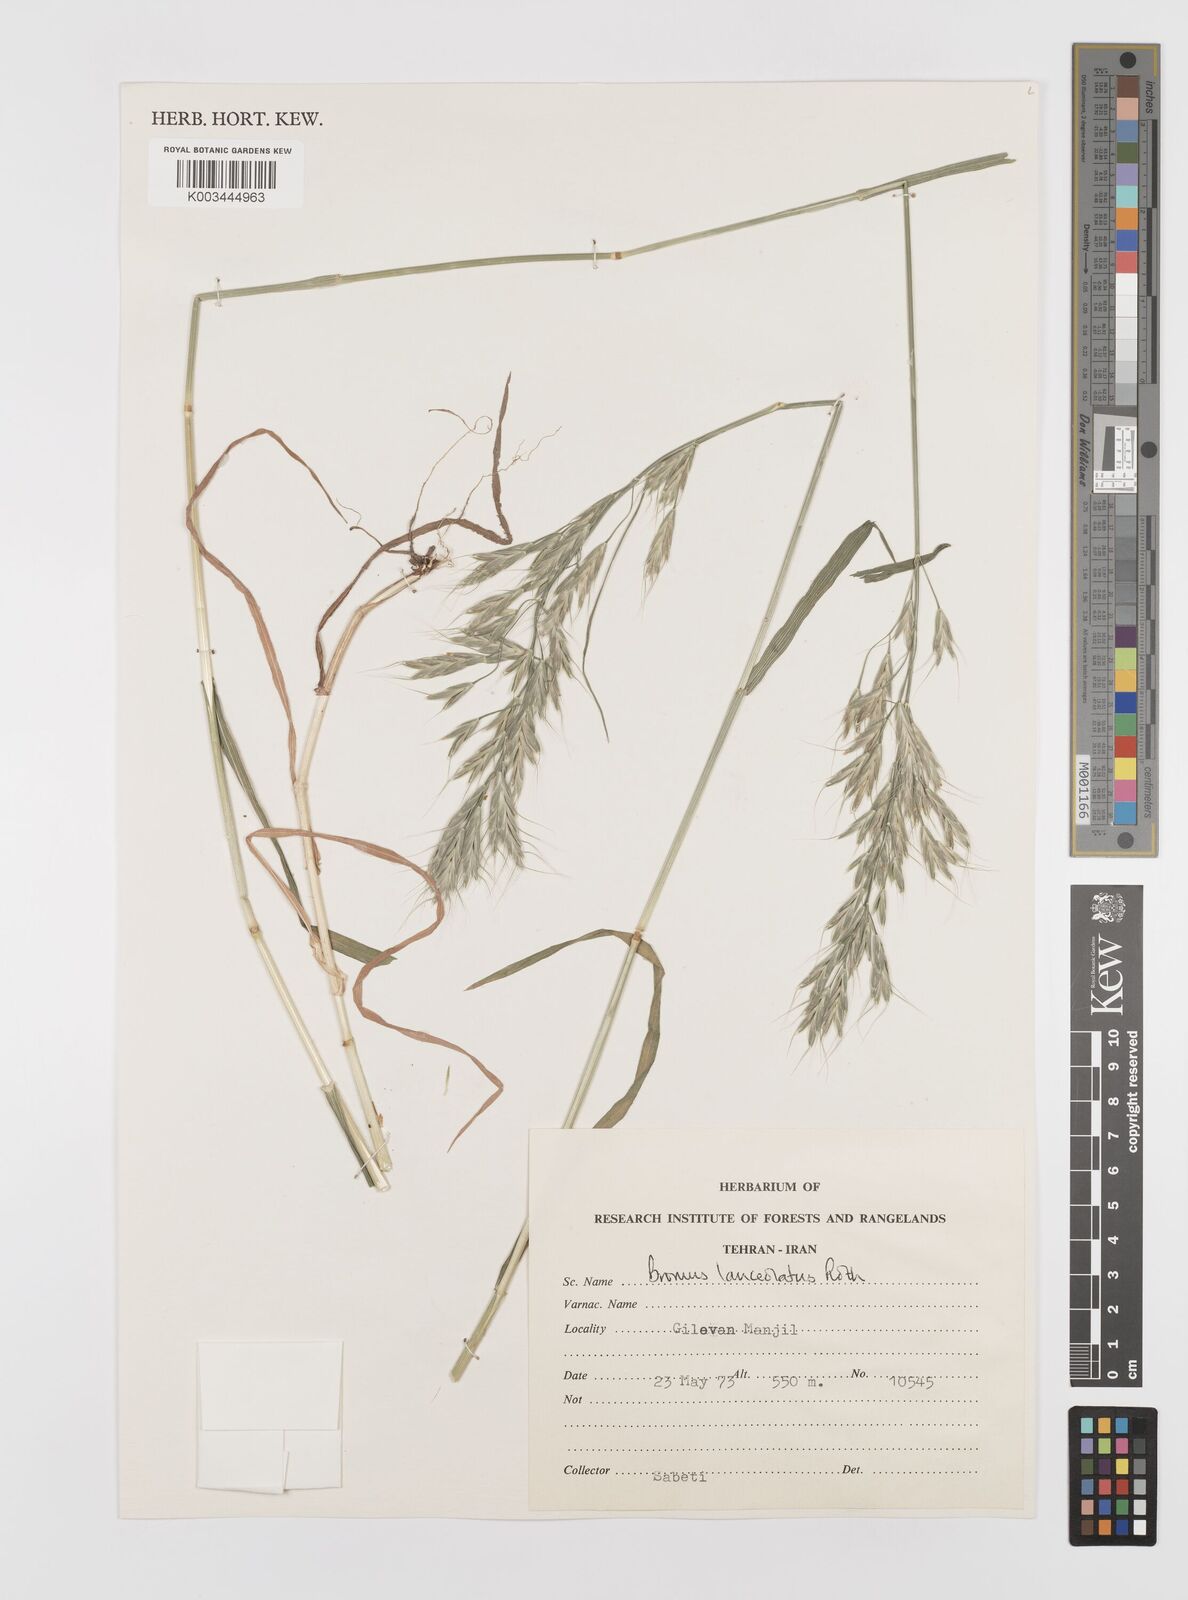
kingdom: Plantae
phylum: Tracheophyta
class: Liliopsida
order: Poales
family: Poaceae
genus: Bromus
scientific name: Bromus lanceolatus
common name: Mediterranean brome
